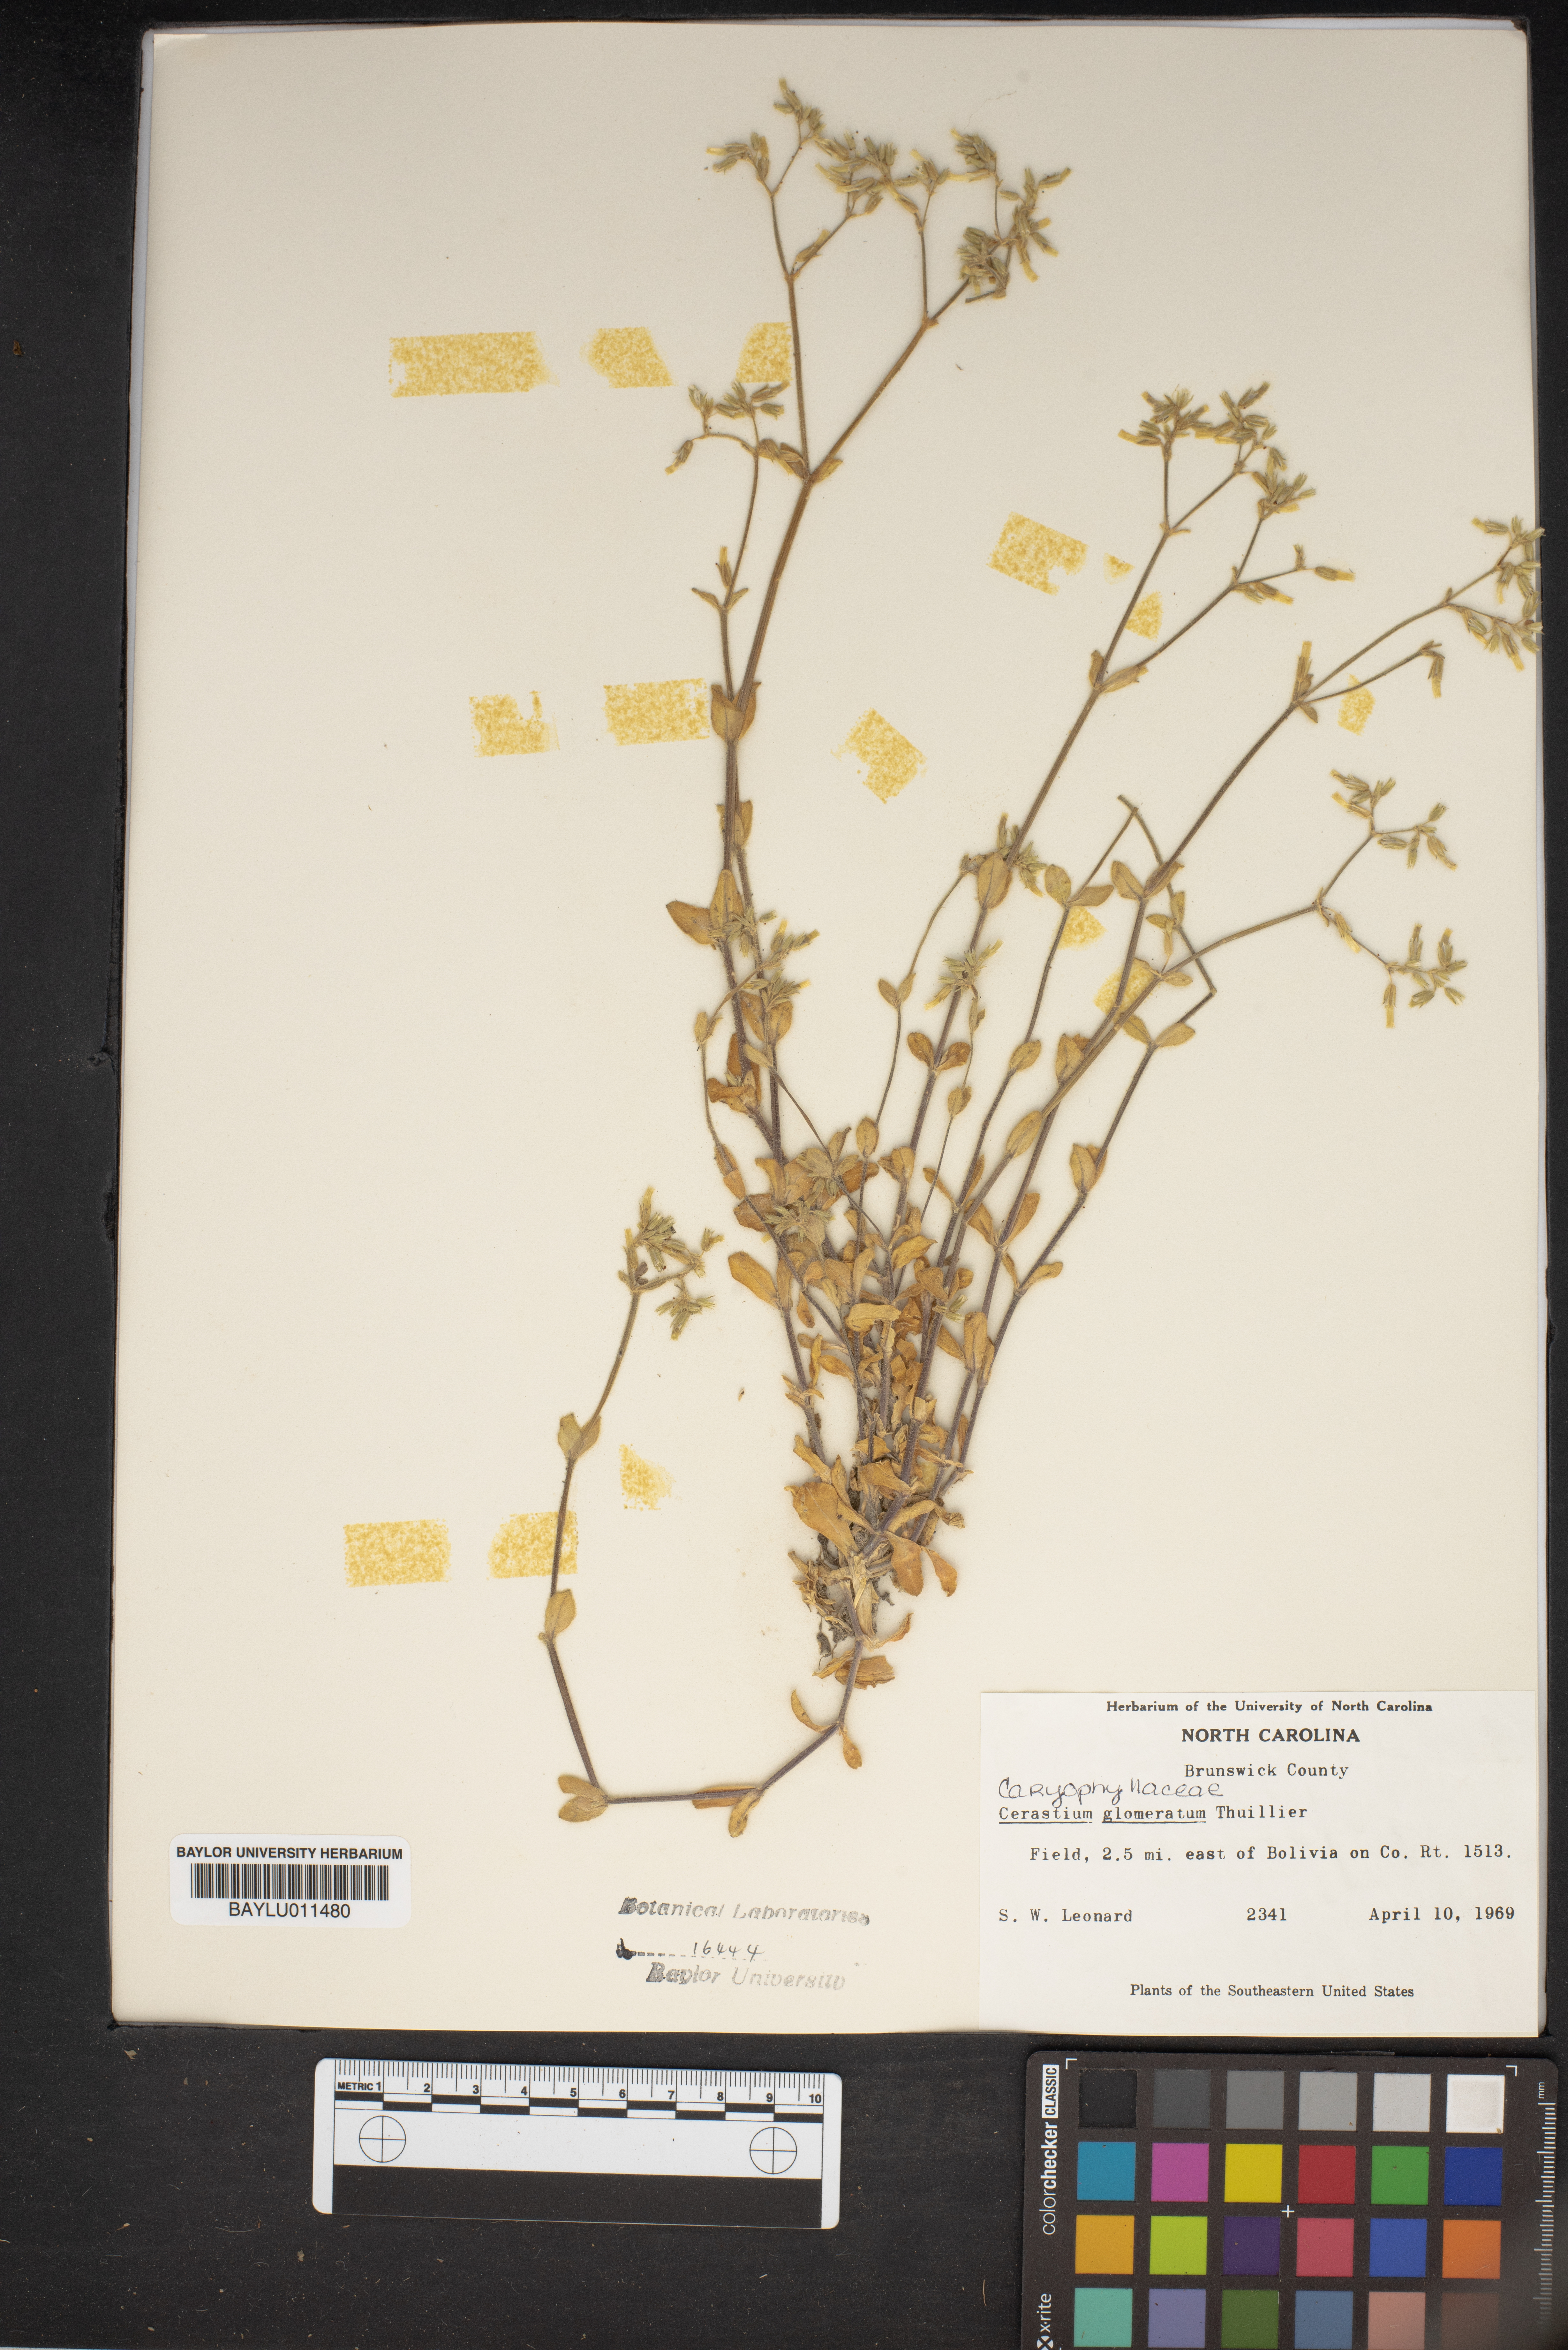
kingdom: Plantae
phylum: Tracheophyta
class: Magnoliopsida
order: Caryophyllales
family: Caryophyllaceae
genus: Cerastium
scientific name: Cerastium glomeratum
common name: Sticky chickweed
